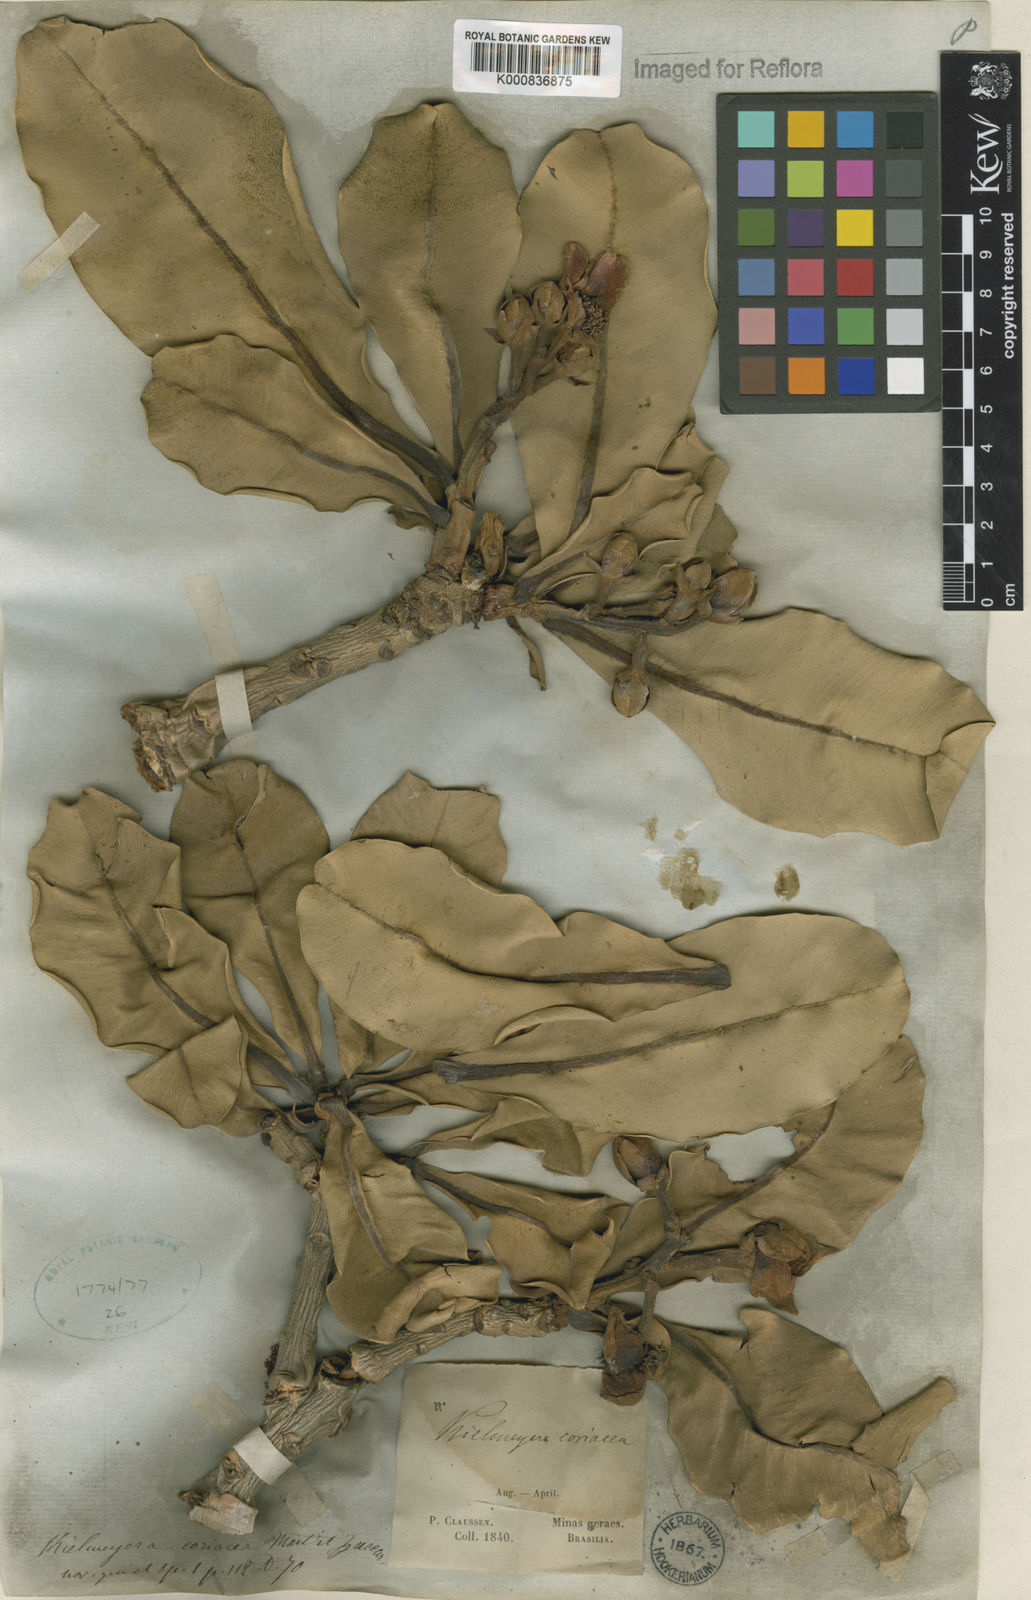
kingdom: Plantae
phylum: Tracheophyta
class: Magnoliopsida
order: Malpighiales
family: Calophyllaceae
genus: Kielmeyera
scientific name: Kielmeyera coriacea
